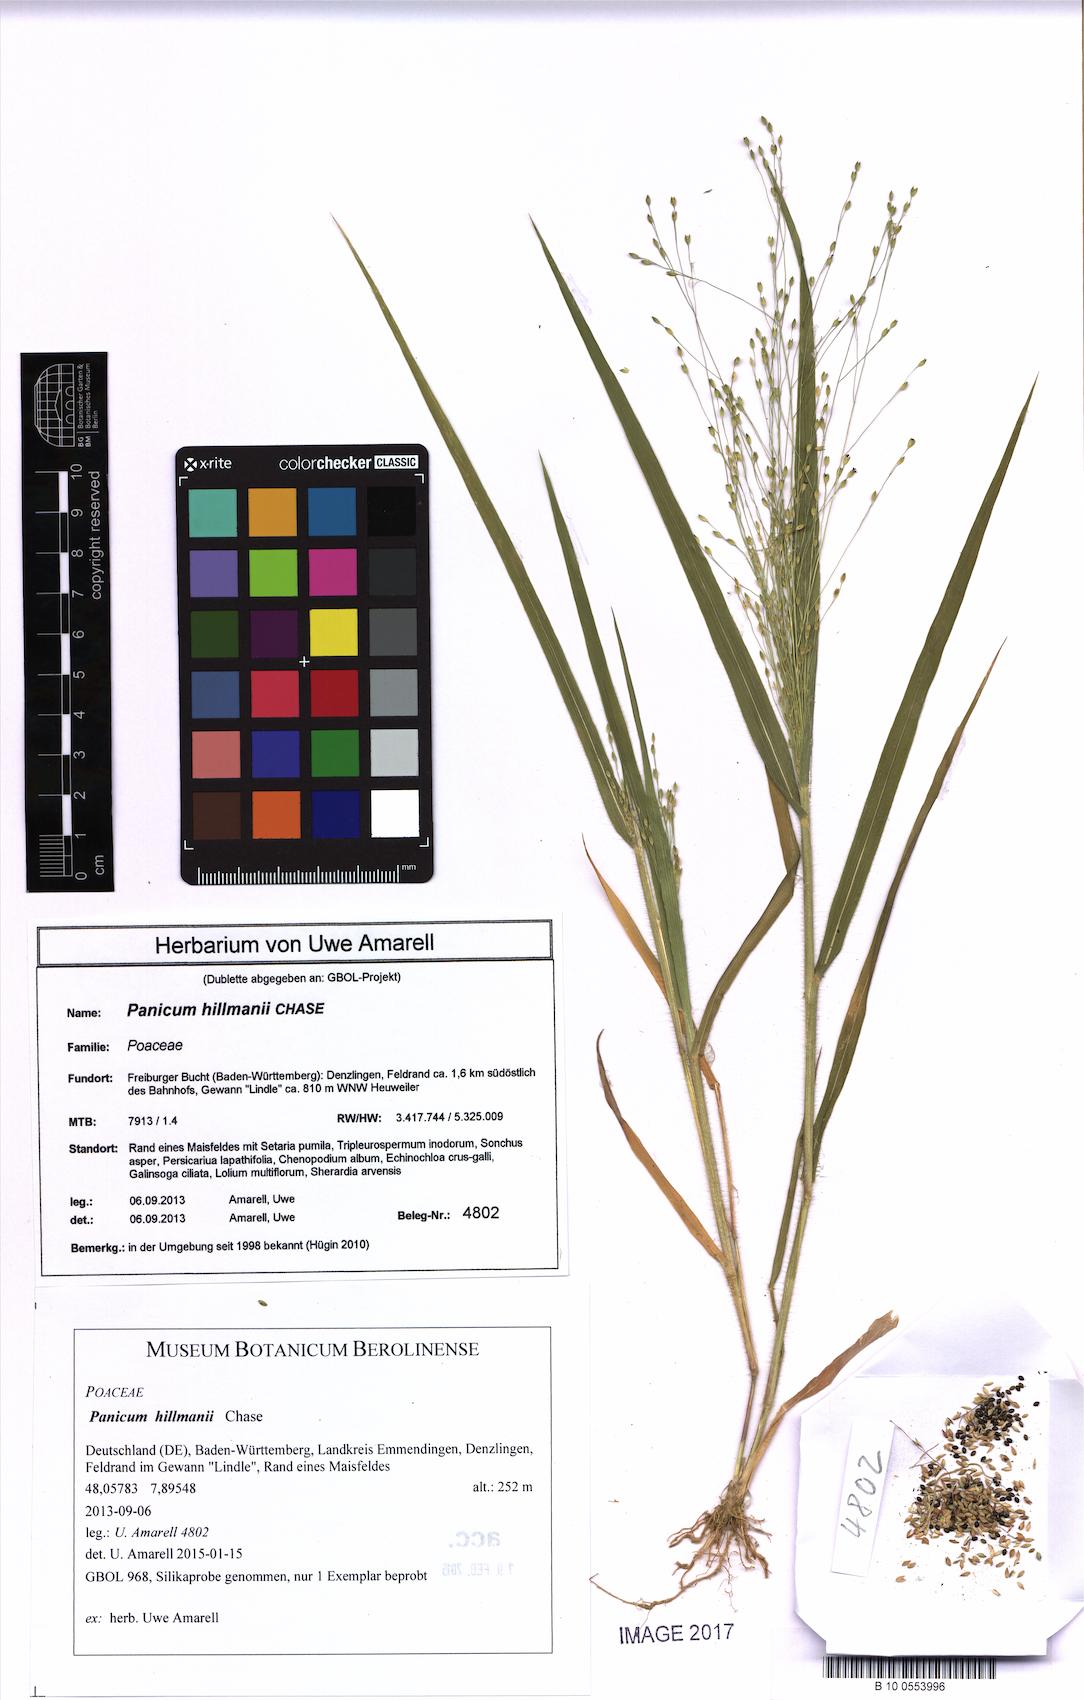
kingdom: Plantae
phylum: Tracheophyta
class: Liliopsida
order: Poales
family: Poaceae
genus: Panicum
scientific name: Panicum hillmanii
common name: Hillman's panicum
